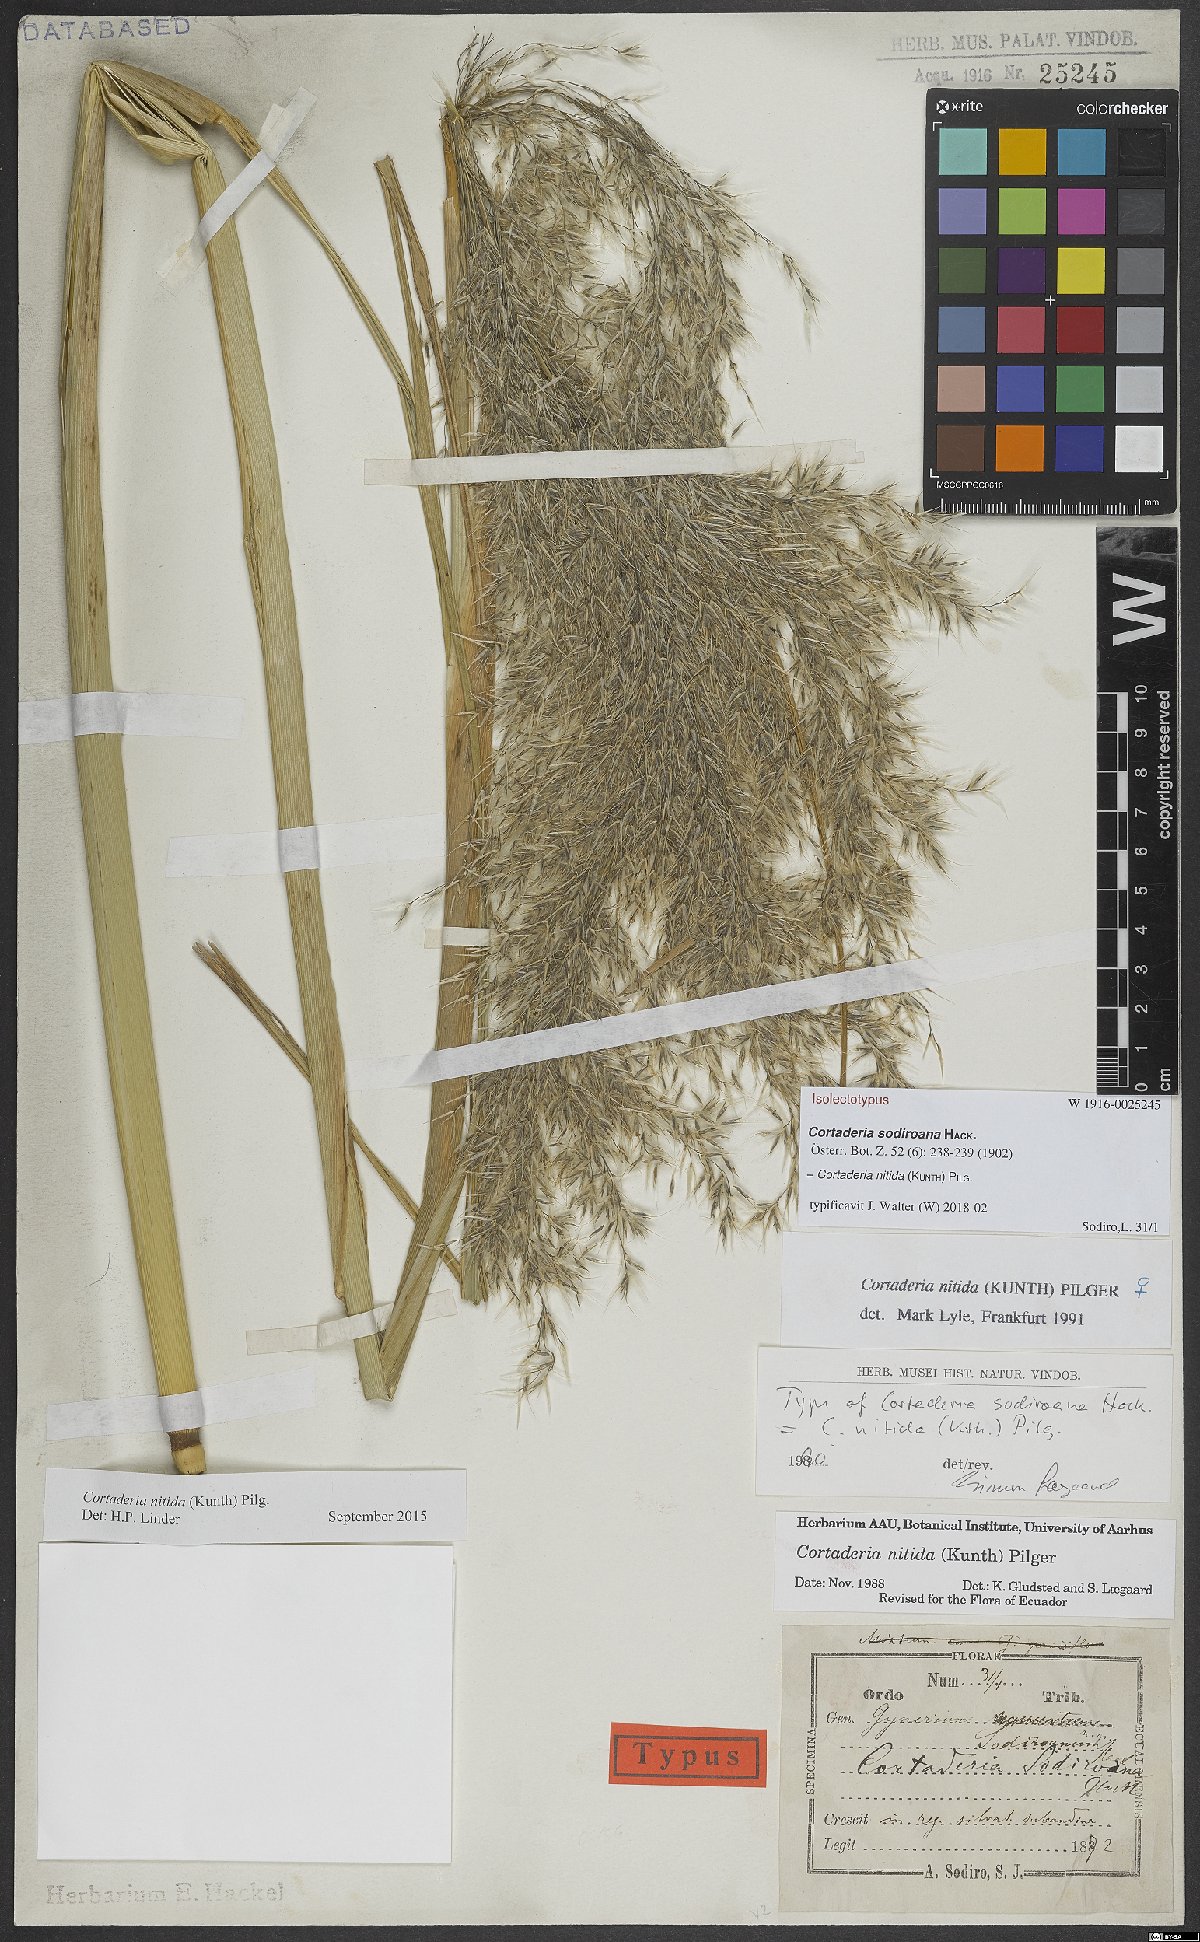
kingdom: Plantae
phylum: Tracheophyta
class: Liliopsida
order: Poales
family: Poaceae
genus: Cortaderia
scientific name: Cortaderia nitida
